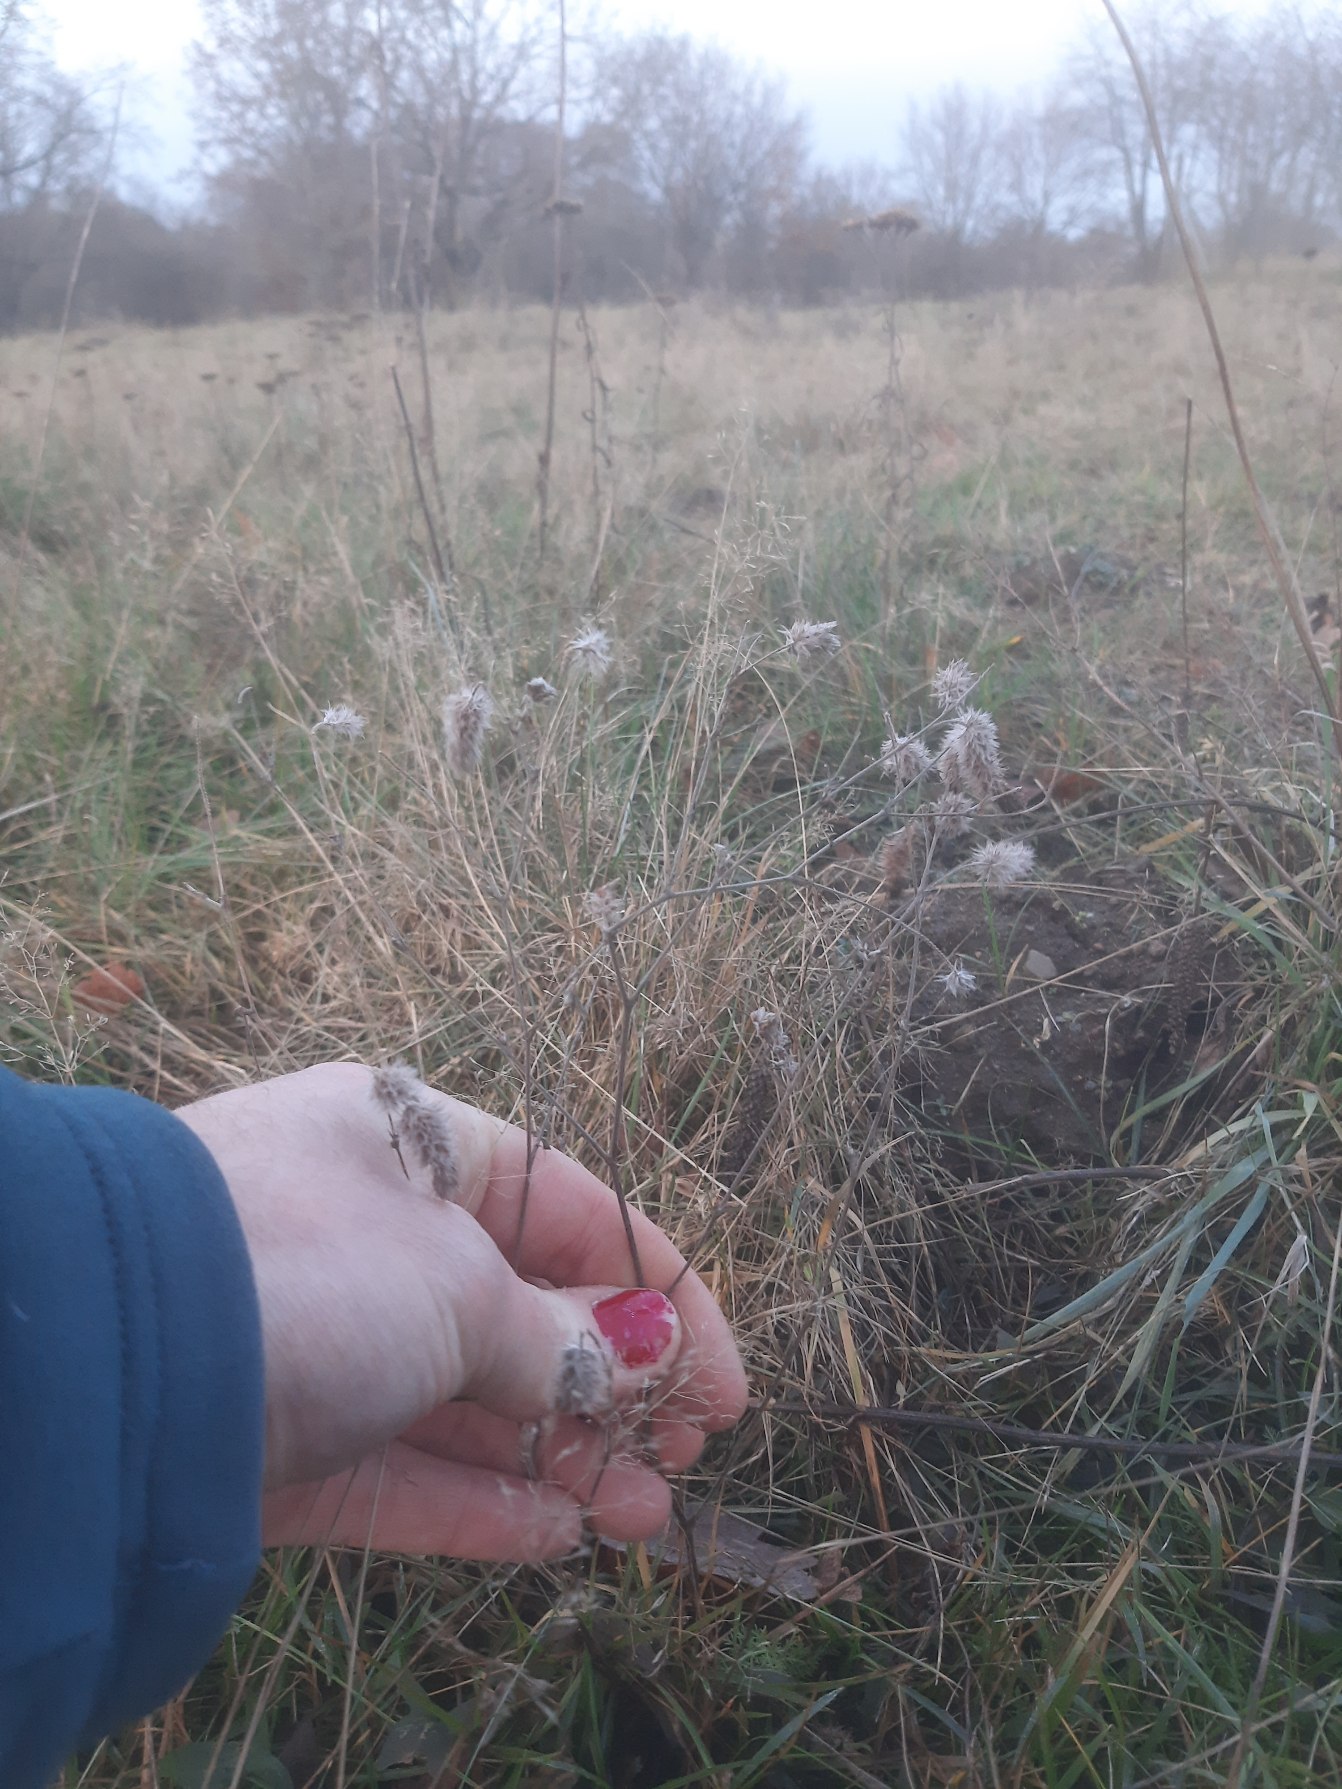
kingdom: Plantae
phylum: Tracheophyta
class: Magnoliopsida
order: Fabales
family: Fabaceae
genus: Trifolium
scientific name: Trifolium arvense
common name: Hare-kløver
